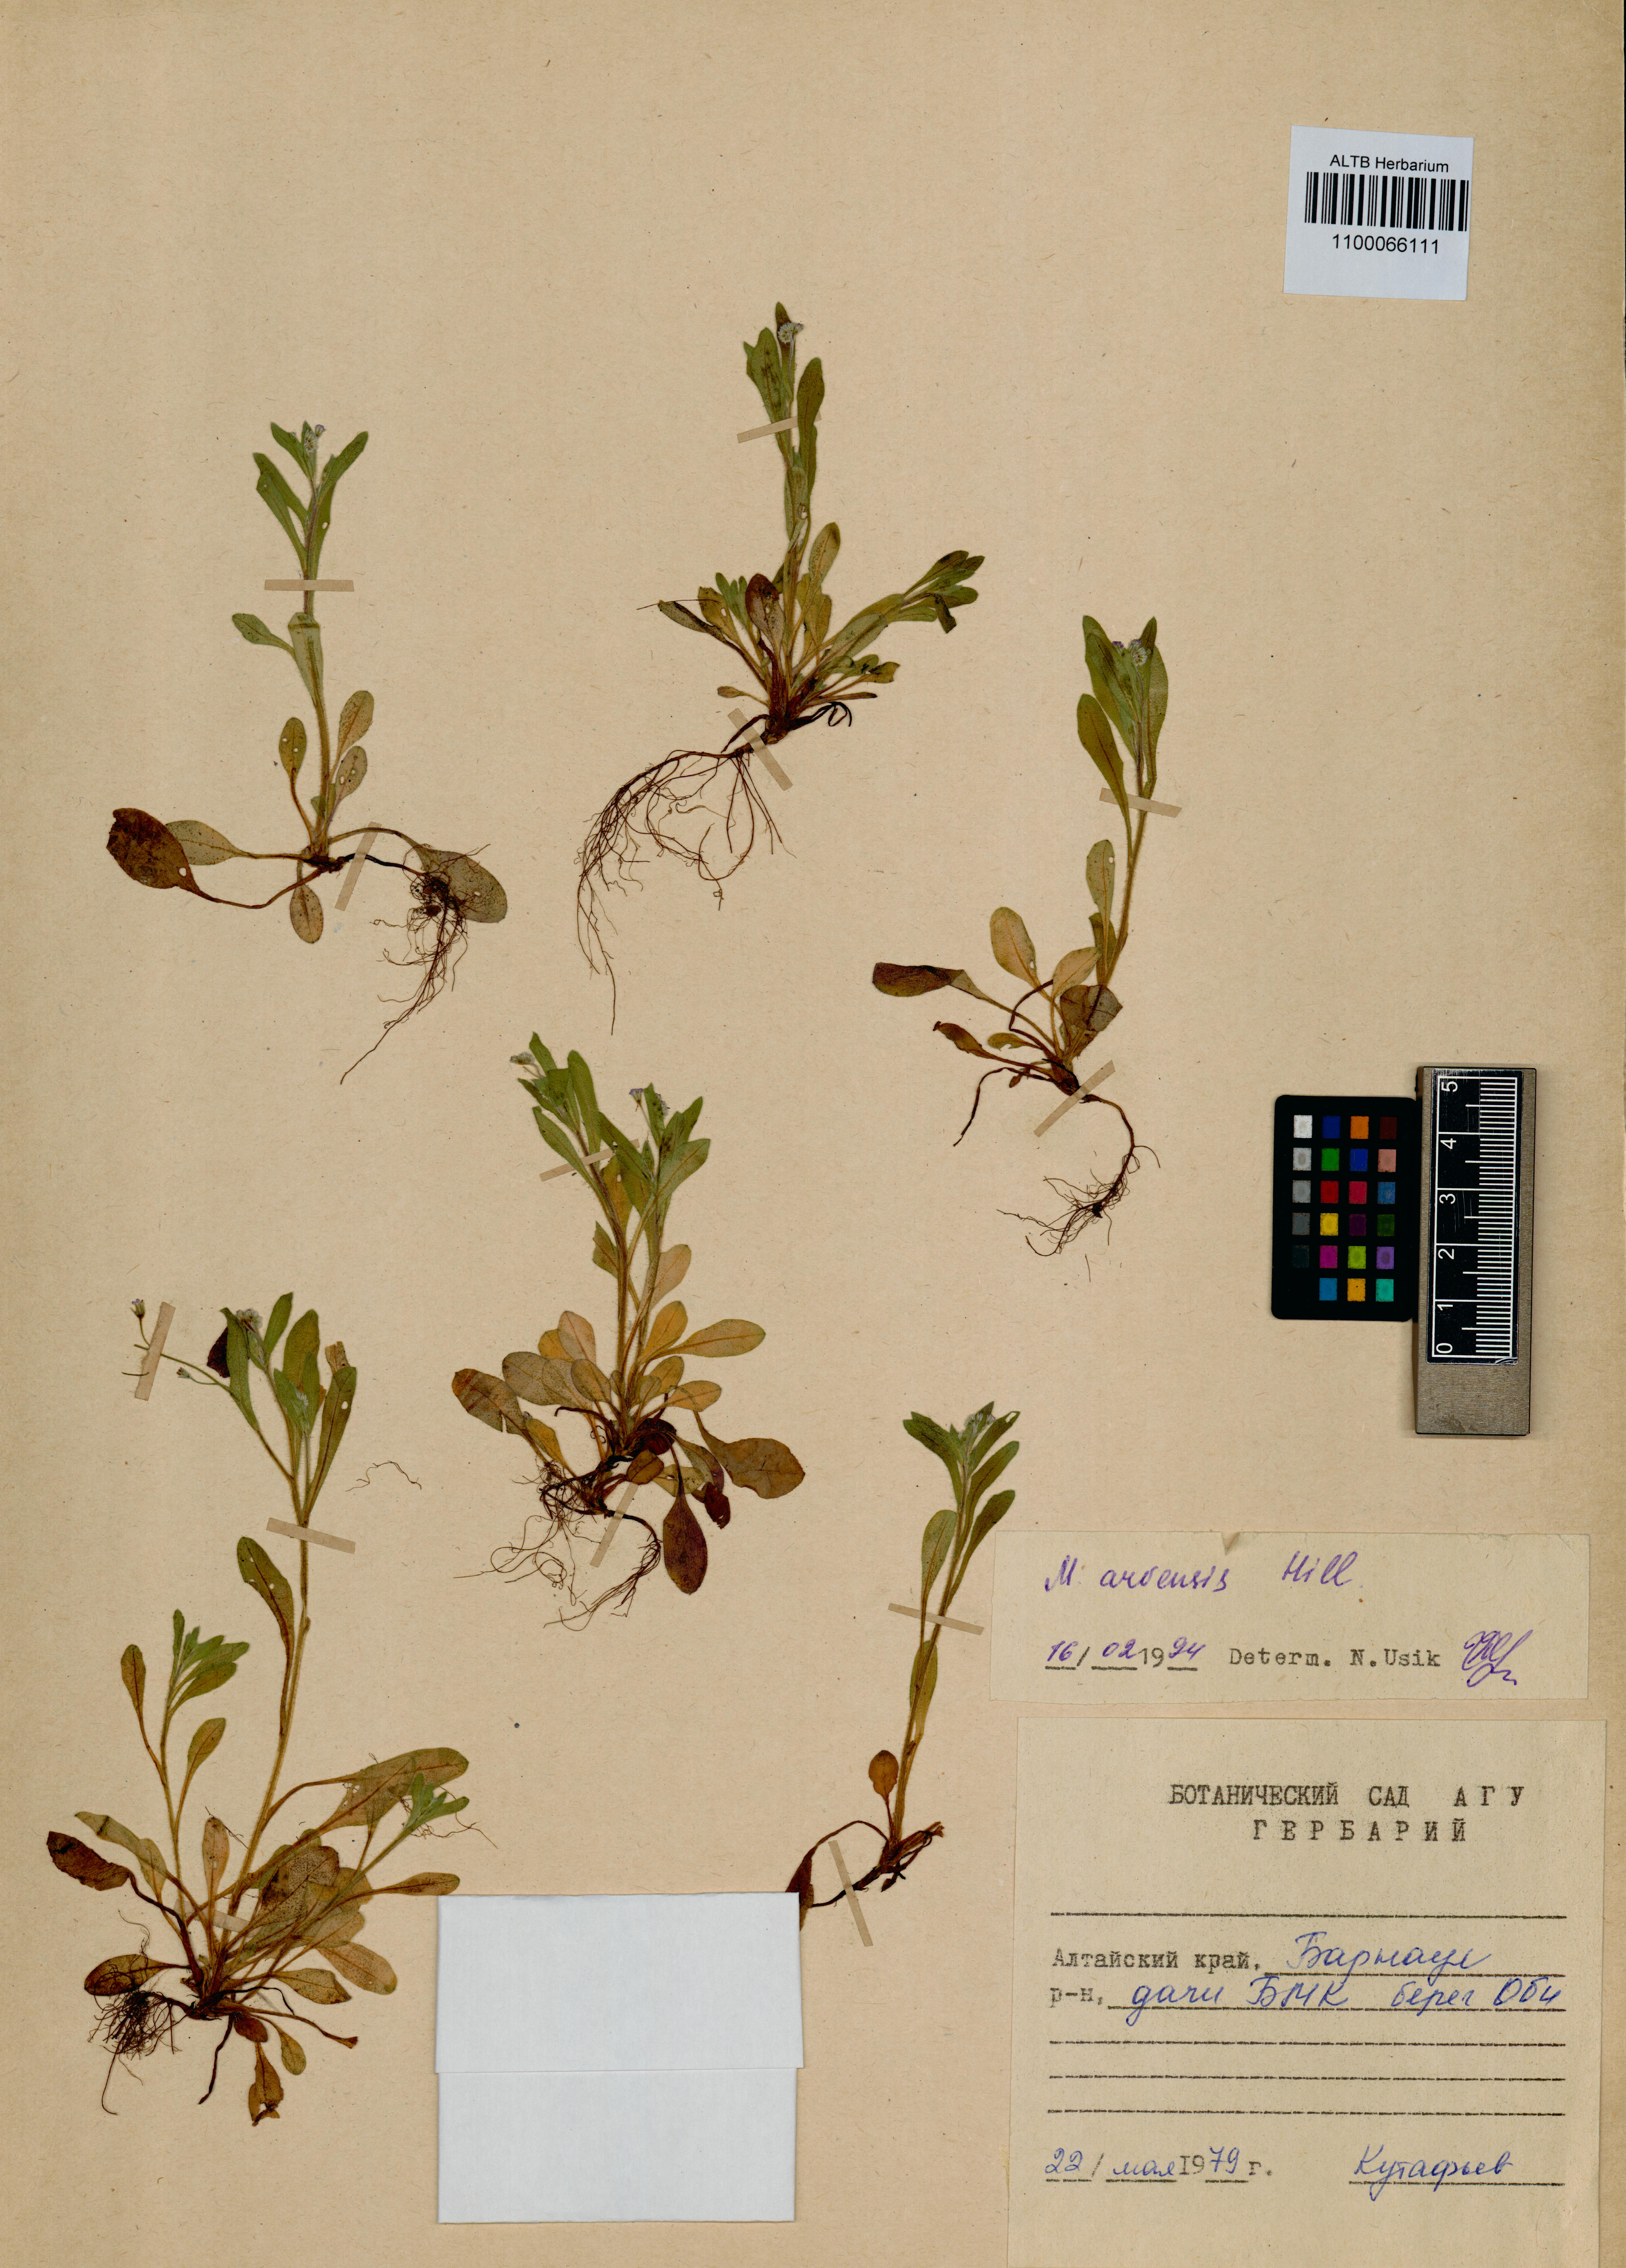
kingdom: Plantae
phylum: Tracheophyta
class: Magnoliopsida
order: Boraginales
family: Boraginaceae
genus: Myosotis
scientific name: Myosotis arvensis
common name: Field forget-me-not
